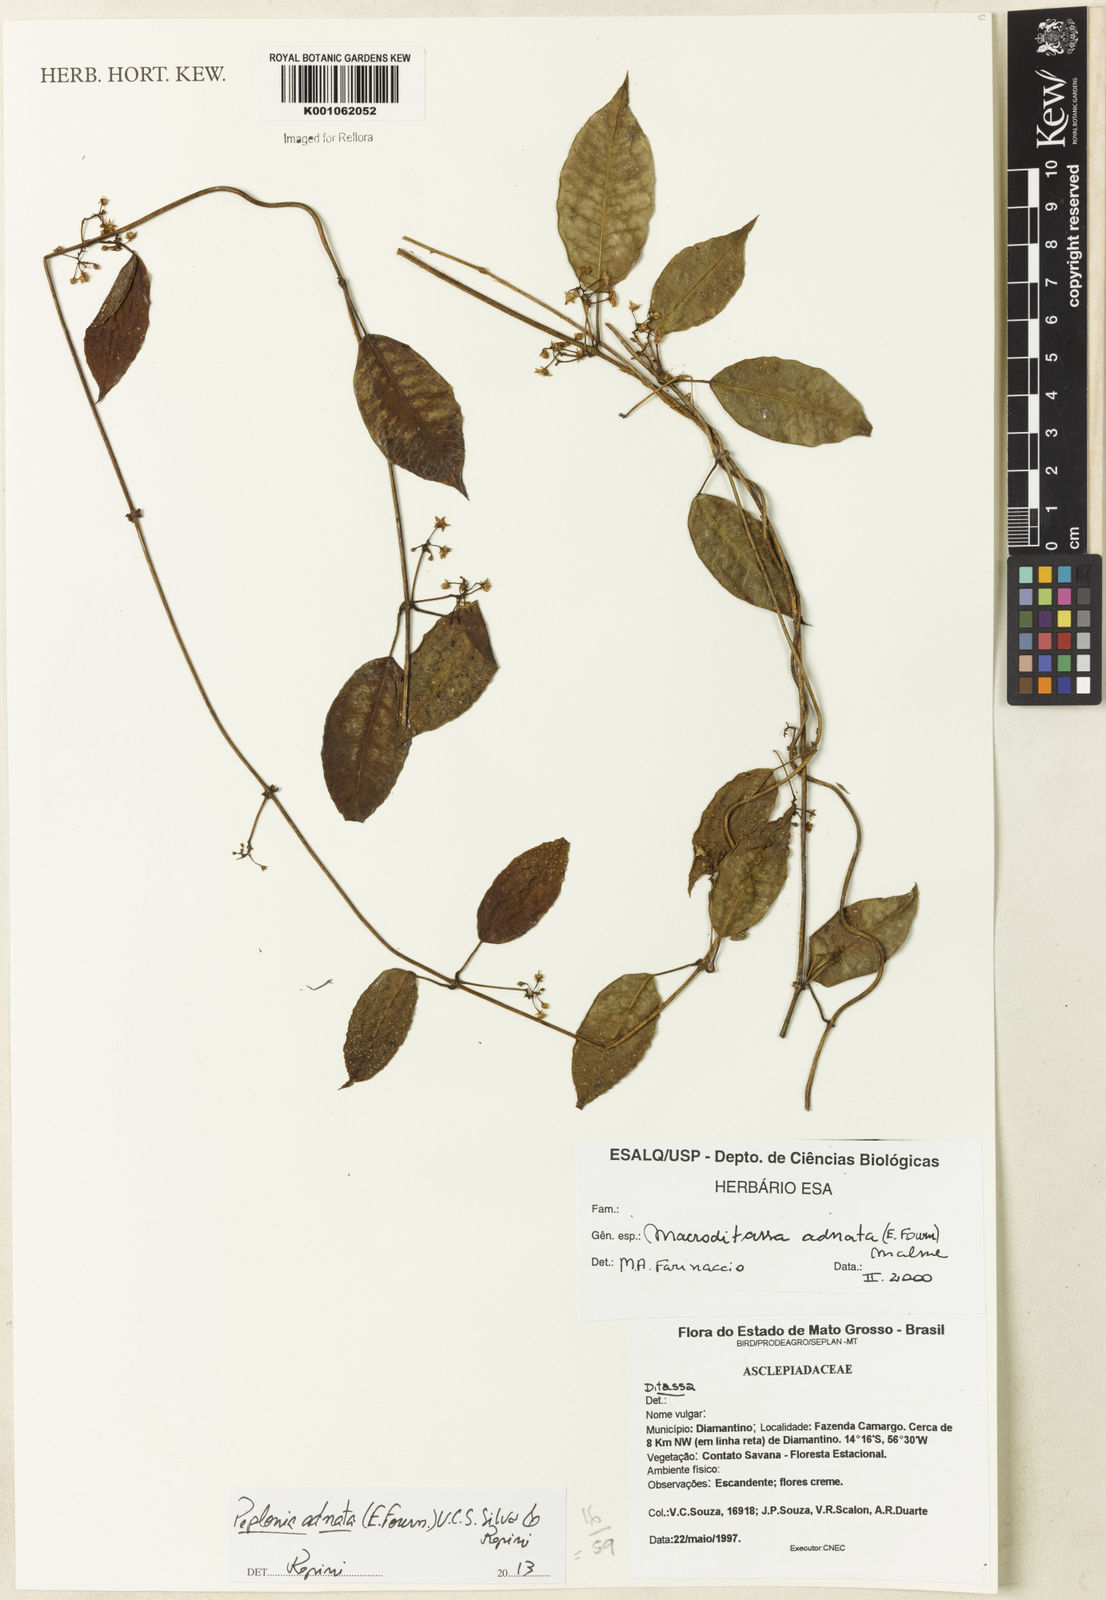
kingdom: Plantae
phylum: Tracheophyta
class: Magnoliopsida
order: Gentianales
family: Apocynaceae
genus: Peplonia
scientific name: Peplonia adnata
